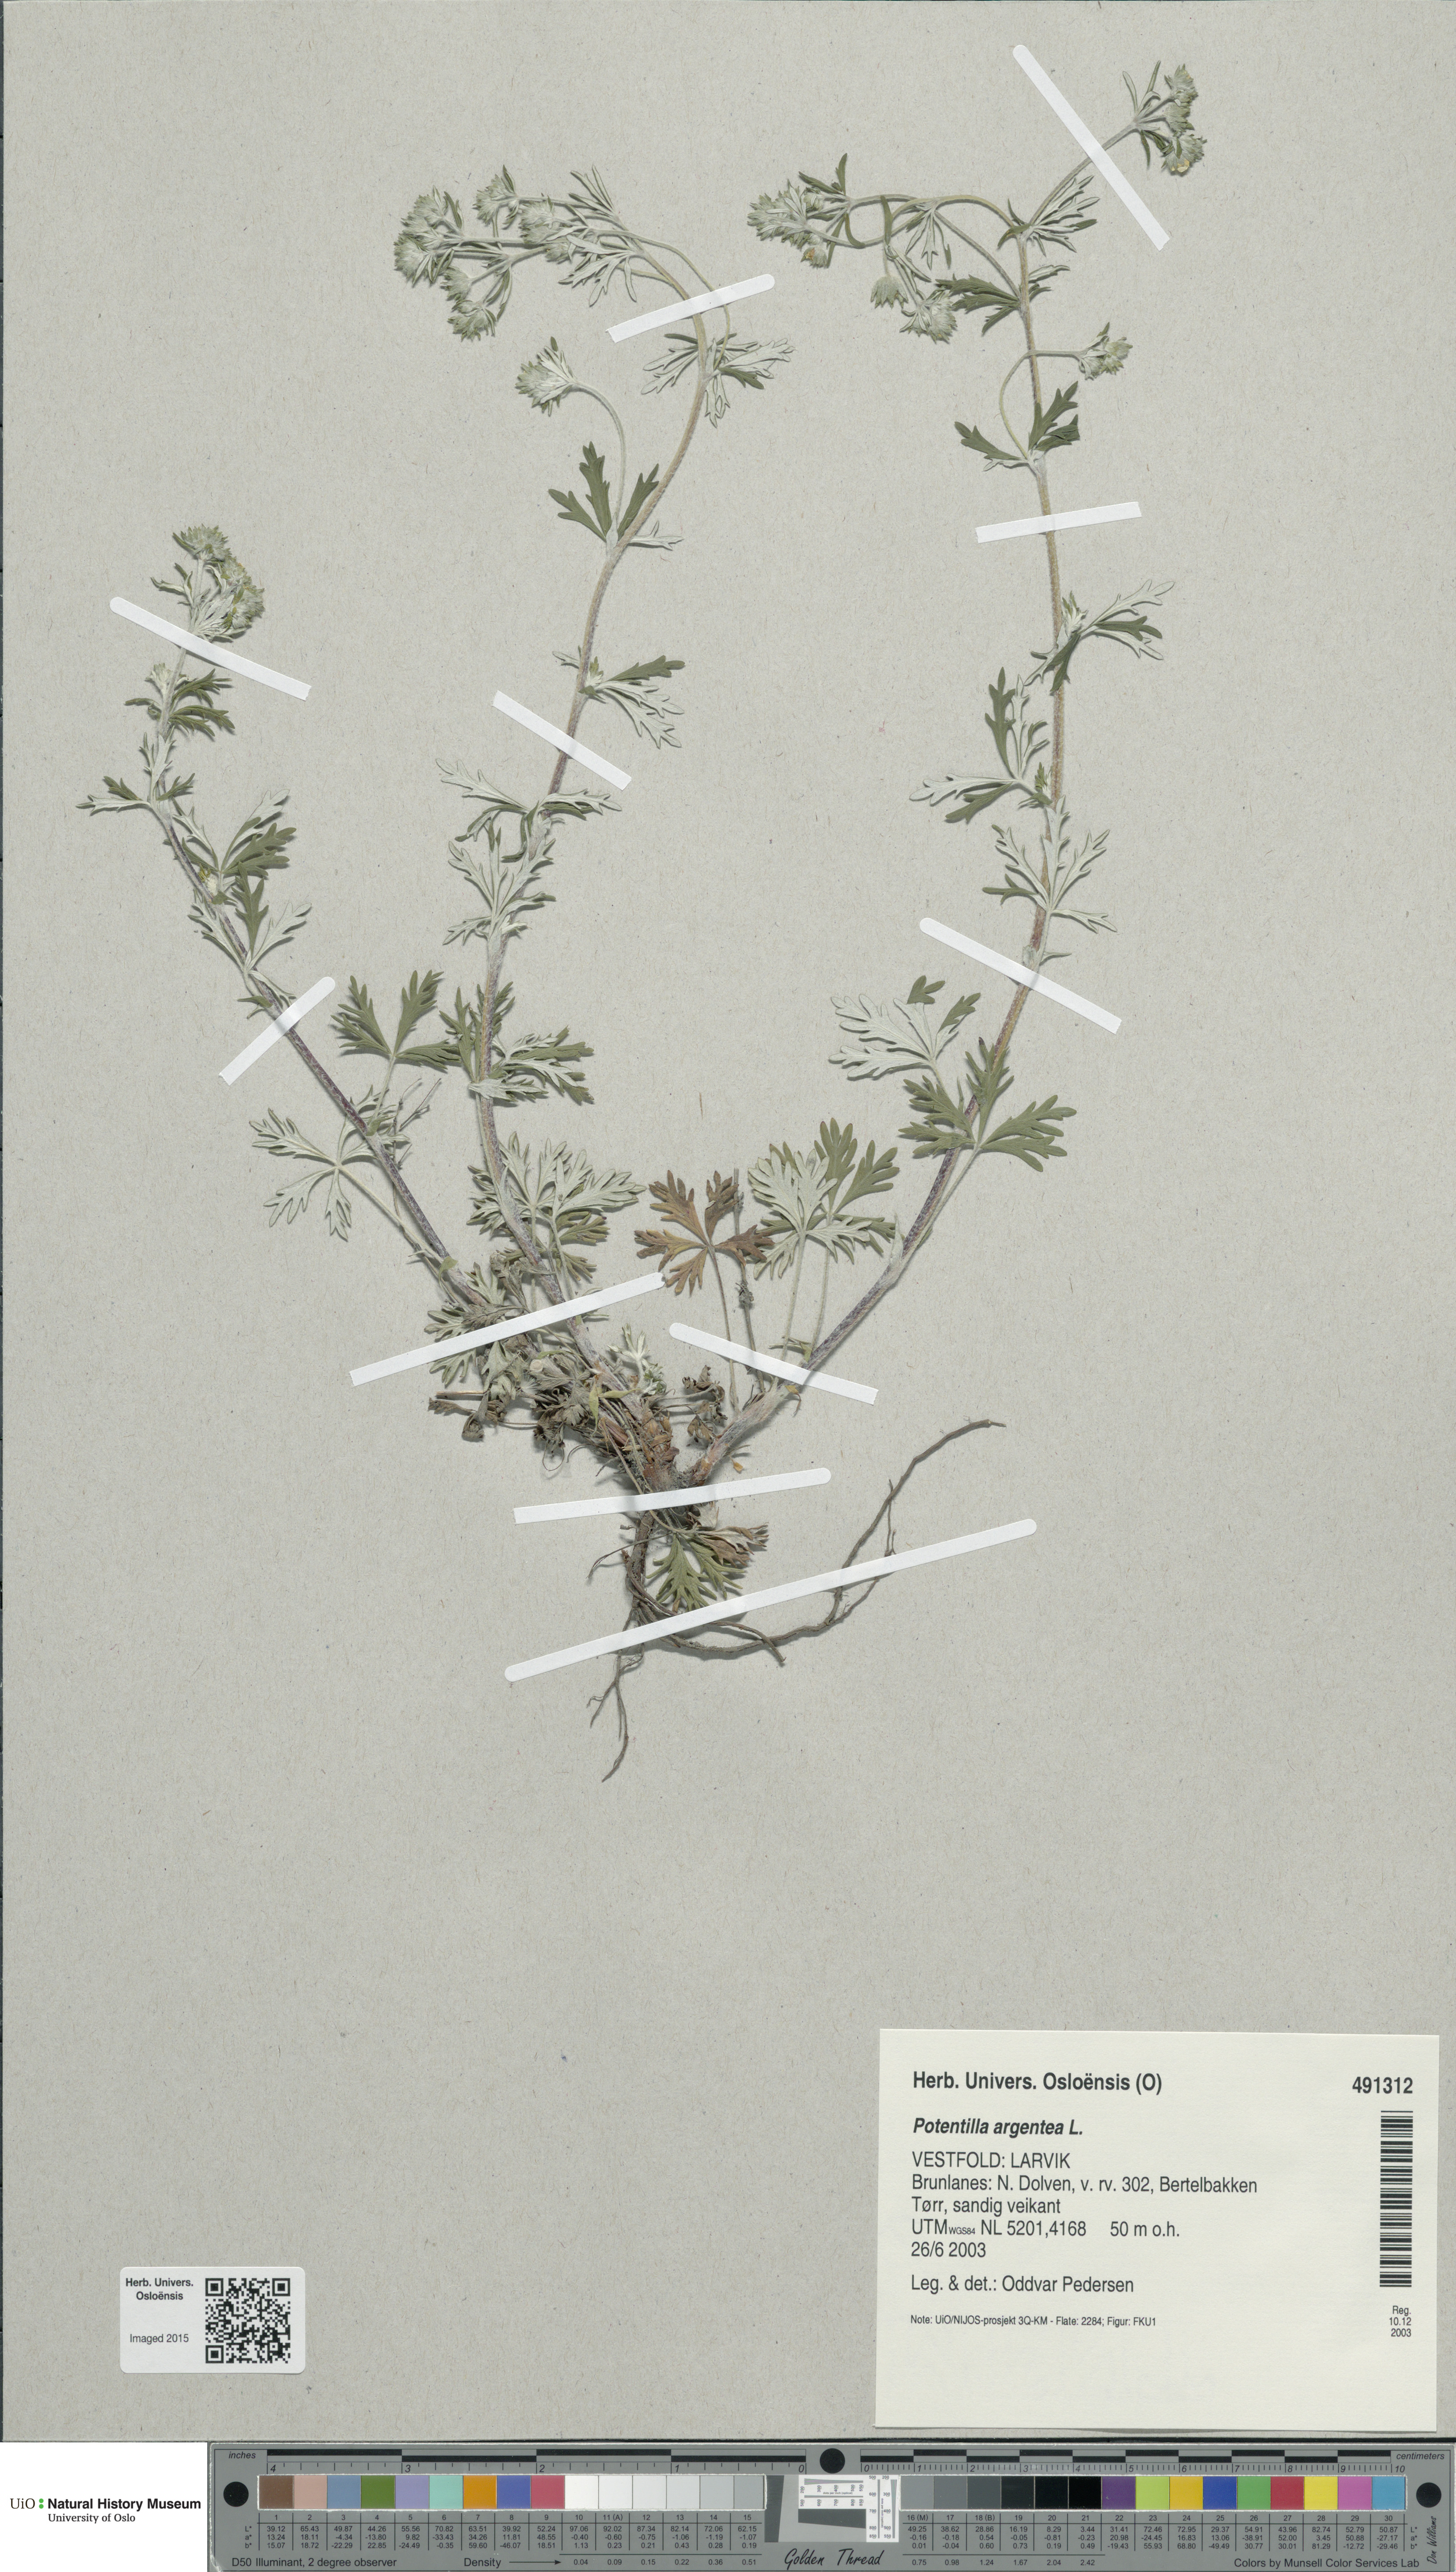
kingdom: Plantae
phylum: Tracheophyta
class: Magnoliopsida
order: Rosales
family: Rosaceae
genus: Potentilla
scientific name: Potentilla argentea
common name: Hoary cinquefoil
